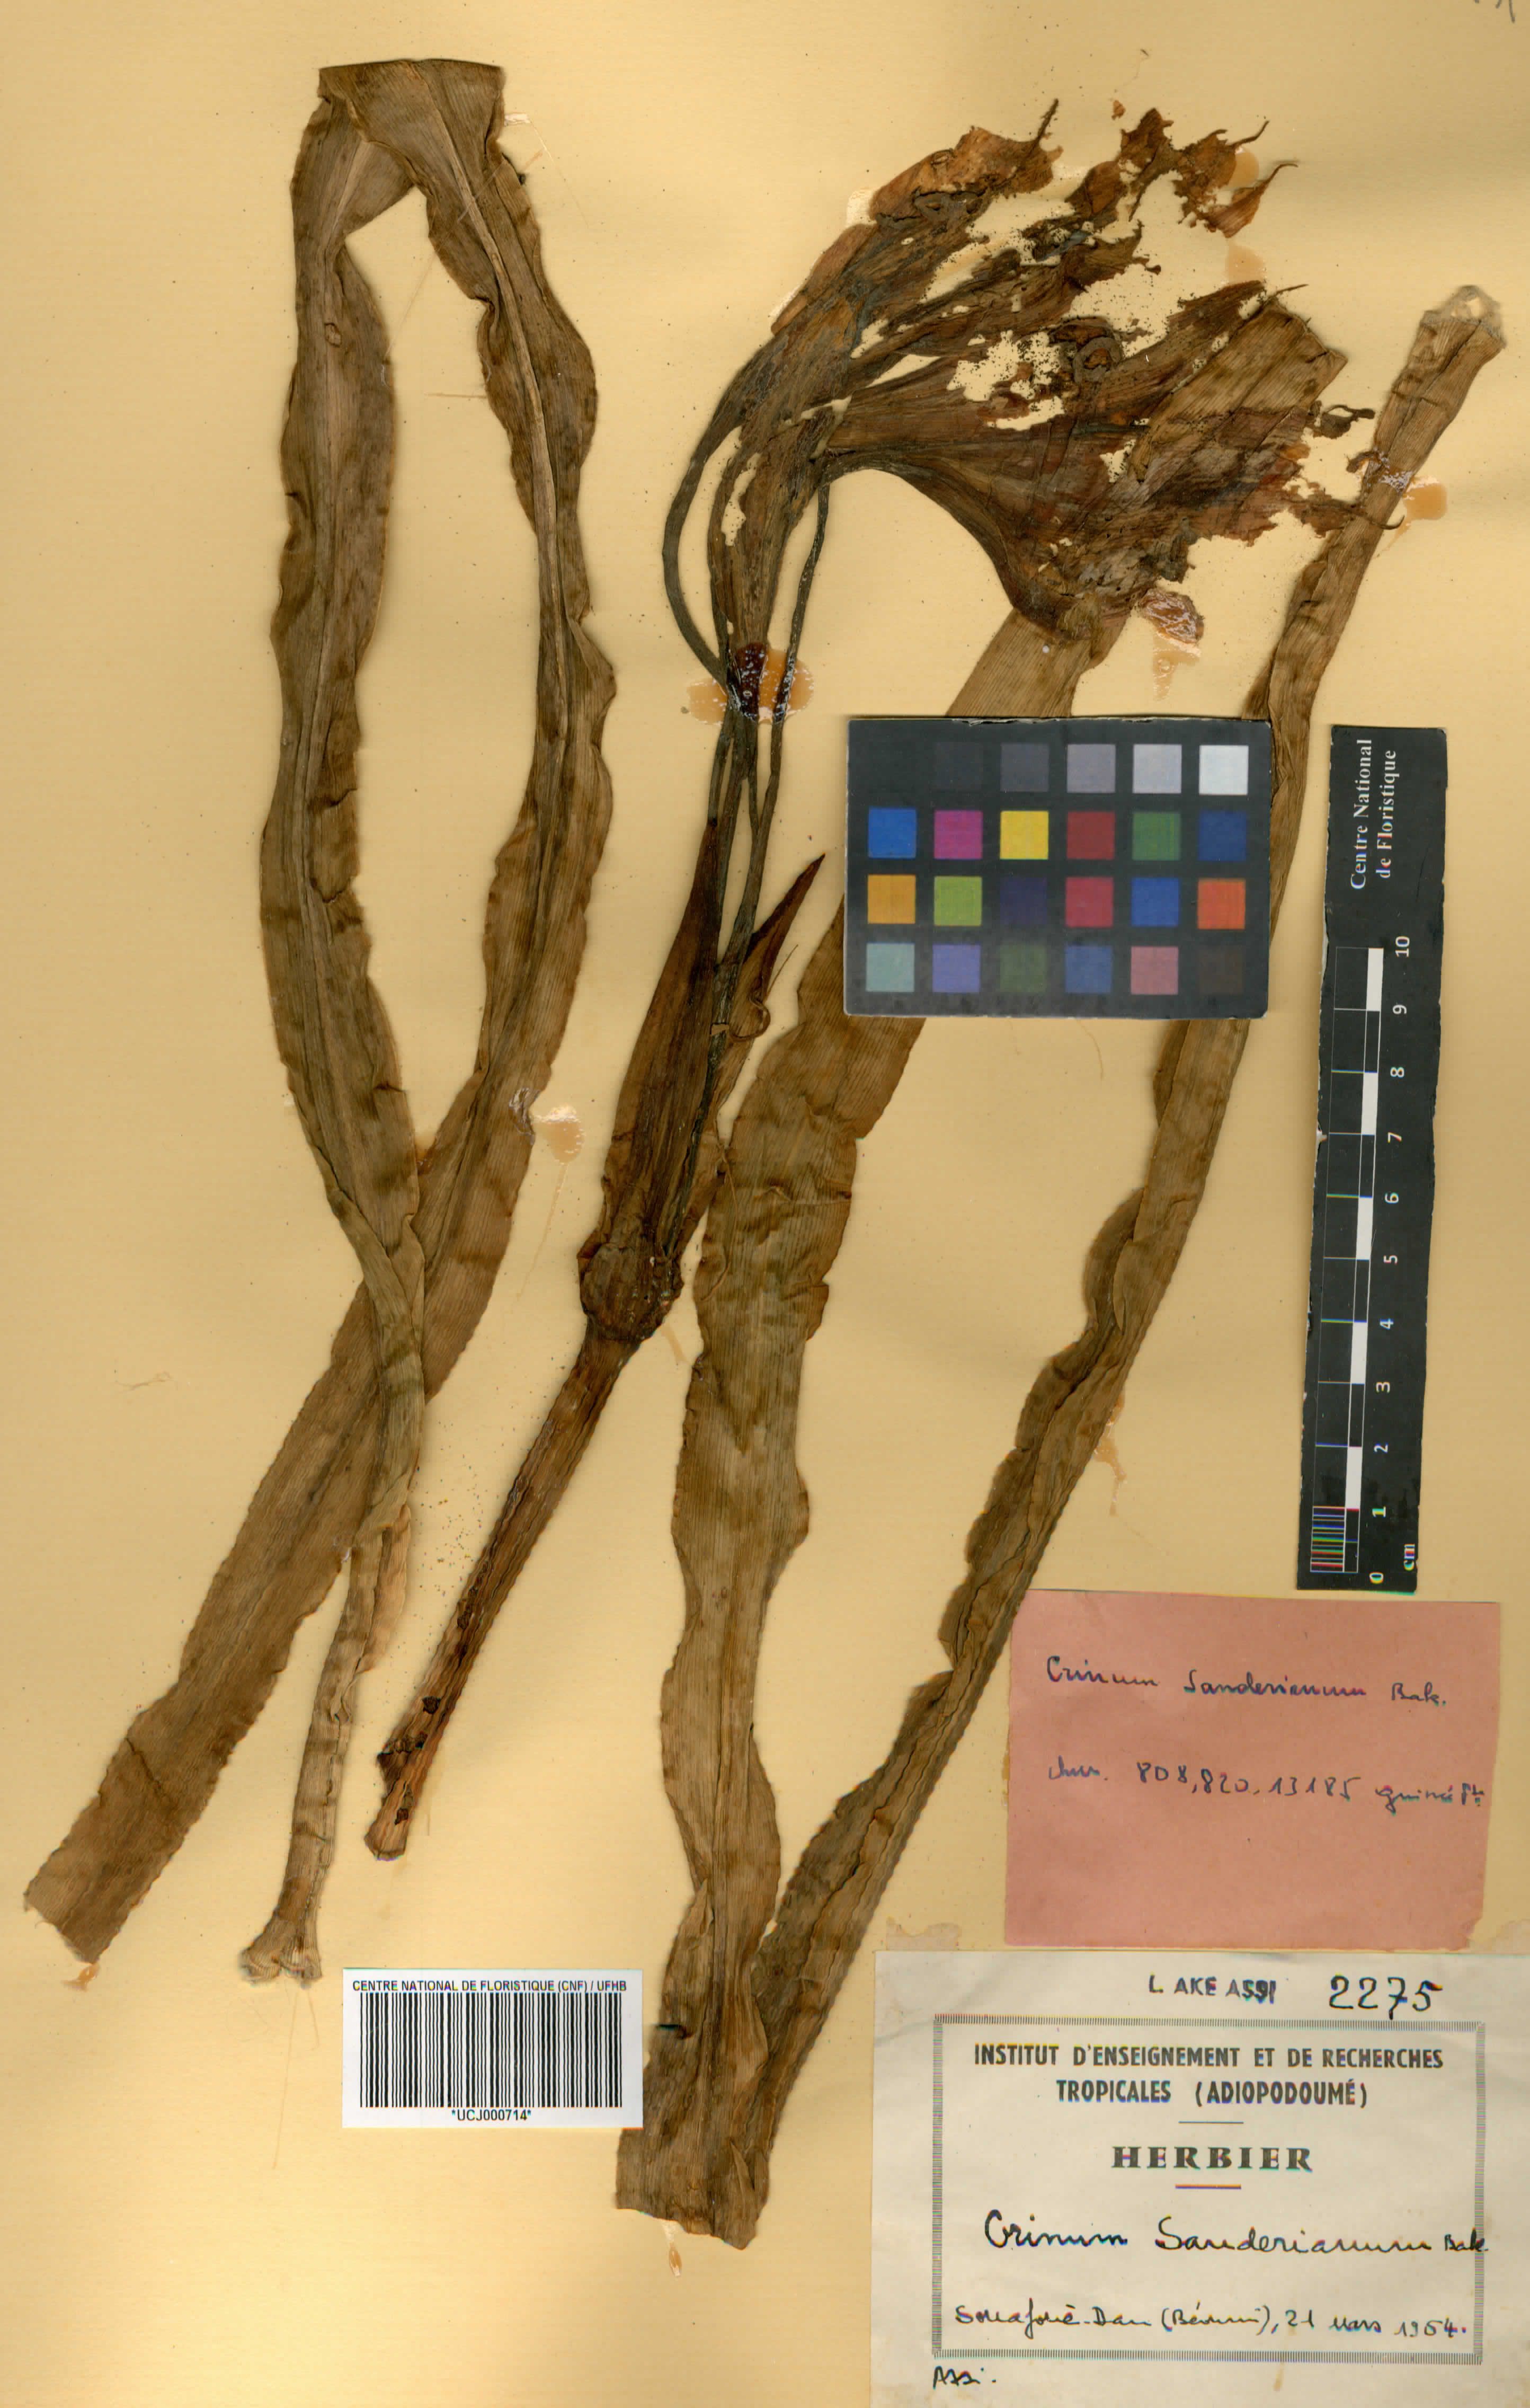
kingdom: Plantae
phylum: Tracheophyta
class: Liliopsida
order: Asparagales
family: Amaryllidaceae
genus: Crinum
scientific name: Crinum ornatum
